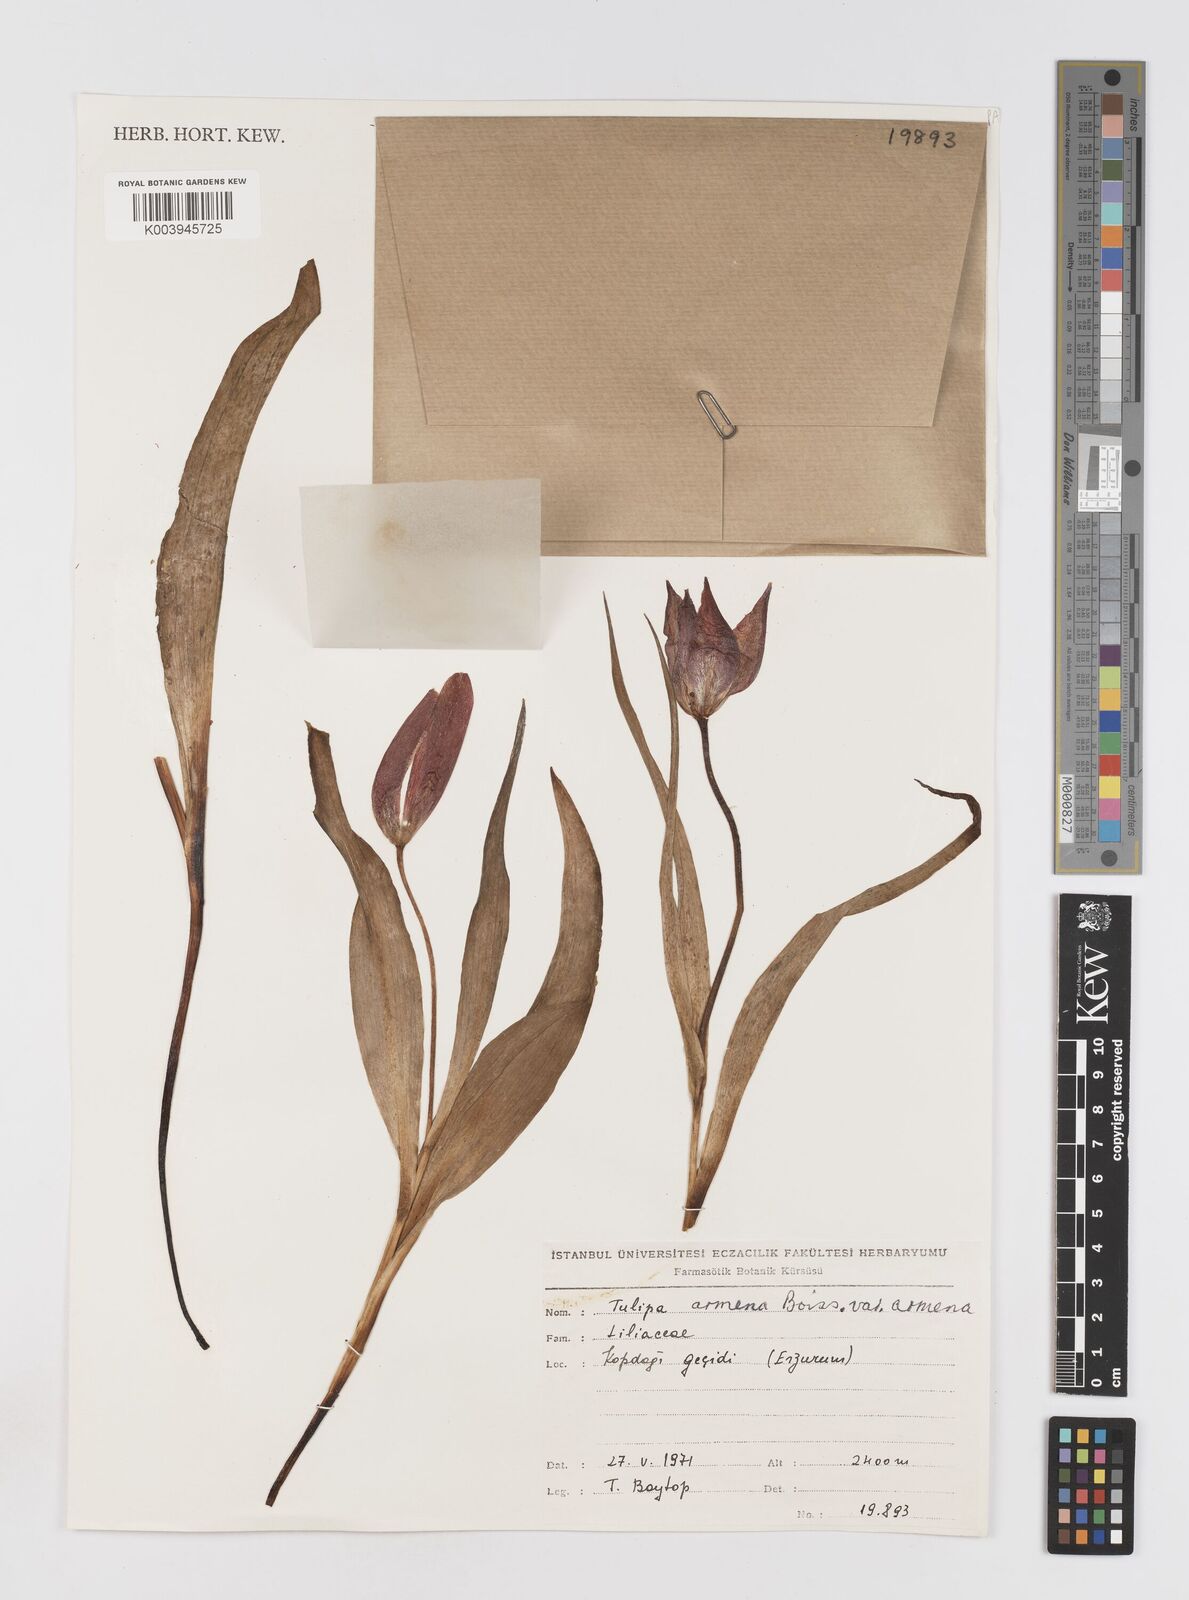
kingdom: Plantae
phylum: Tracheophyta
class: Liliopsida
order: Liliales
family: Liliaceae
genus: Tulipa
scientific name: Tulipa armena
